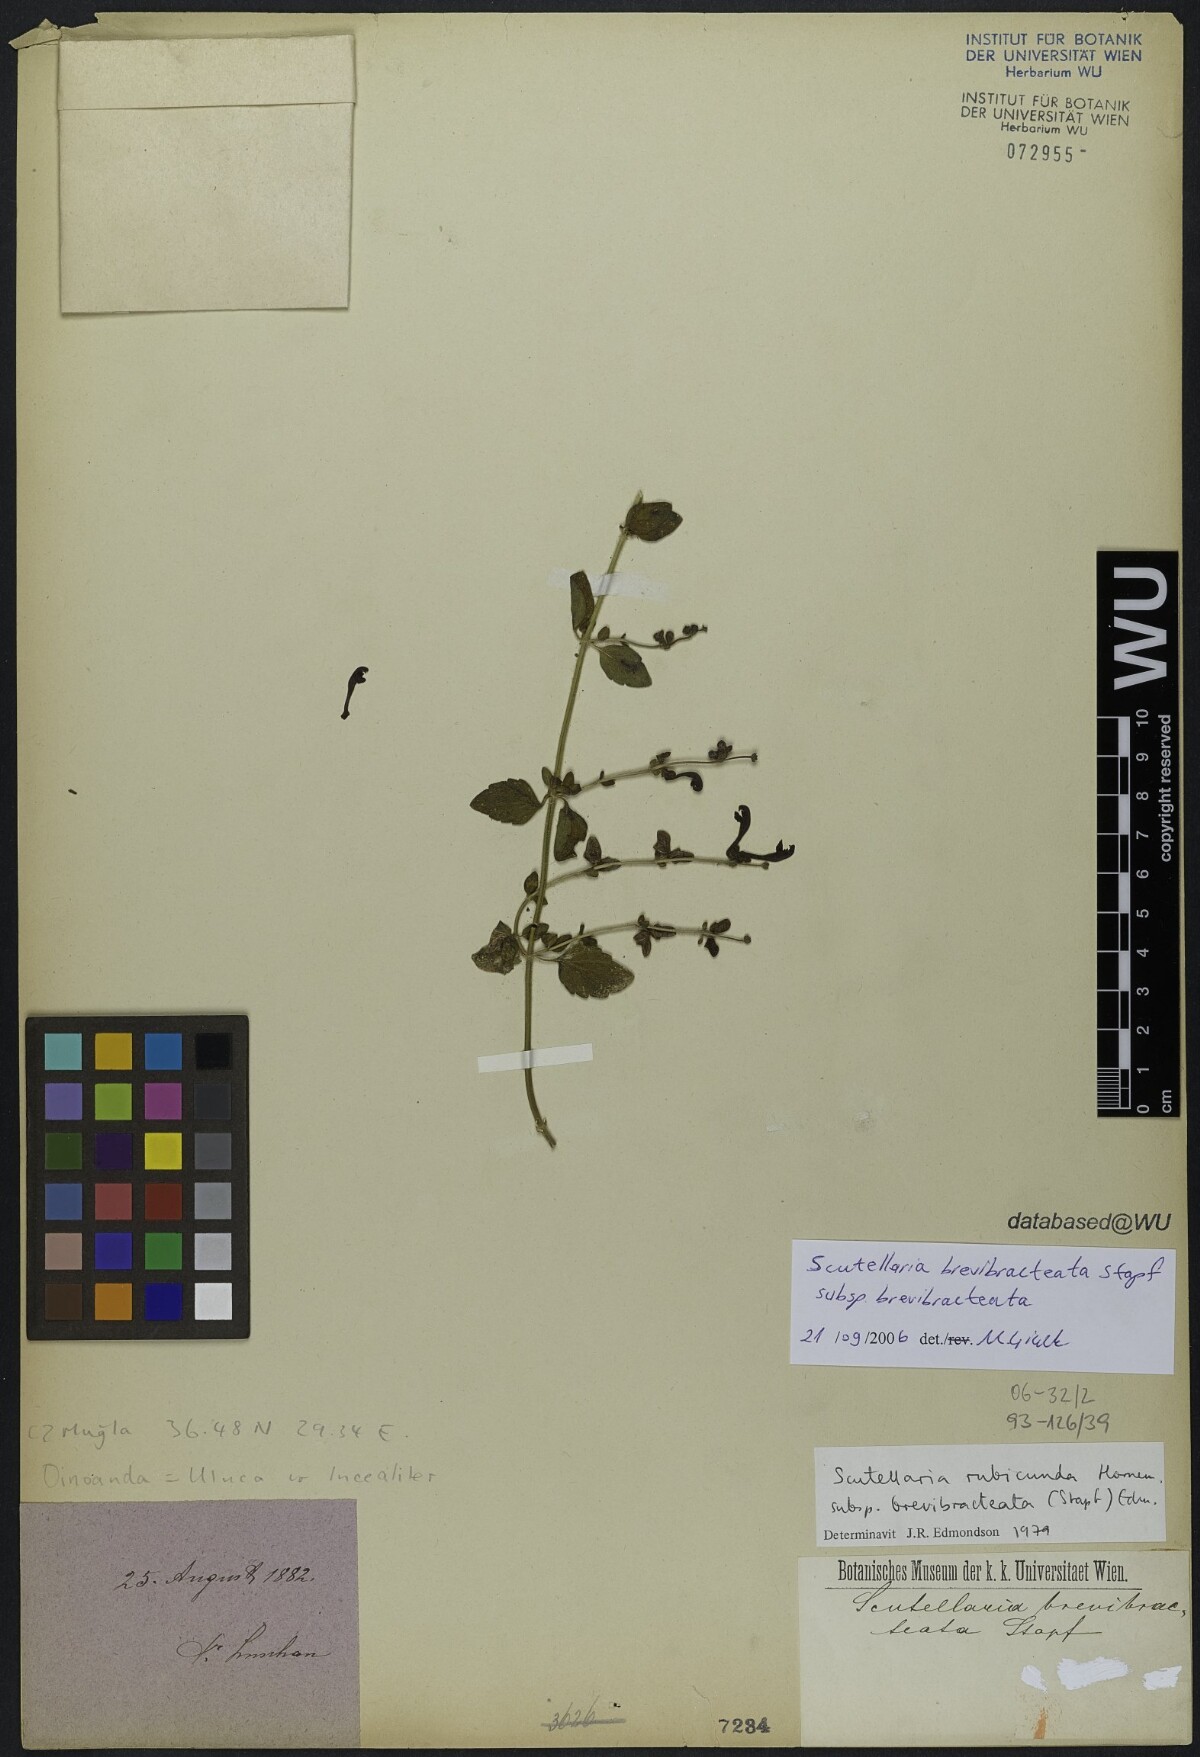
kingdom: Plantae
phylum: Tracheophyta
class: Magnoliopsida
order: Lamiales
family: Lamiaceae
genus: Scutellaria
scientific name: Scutellaria brevibracteata
